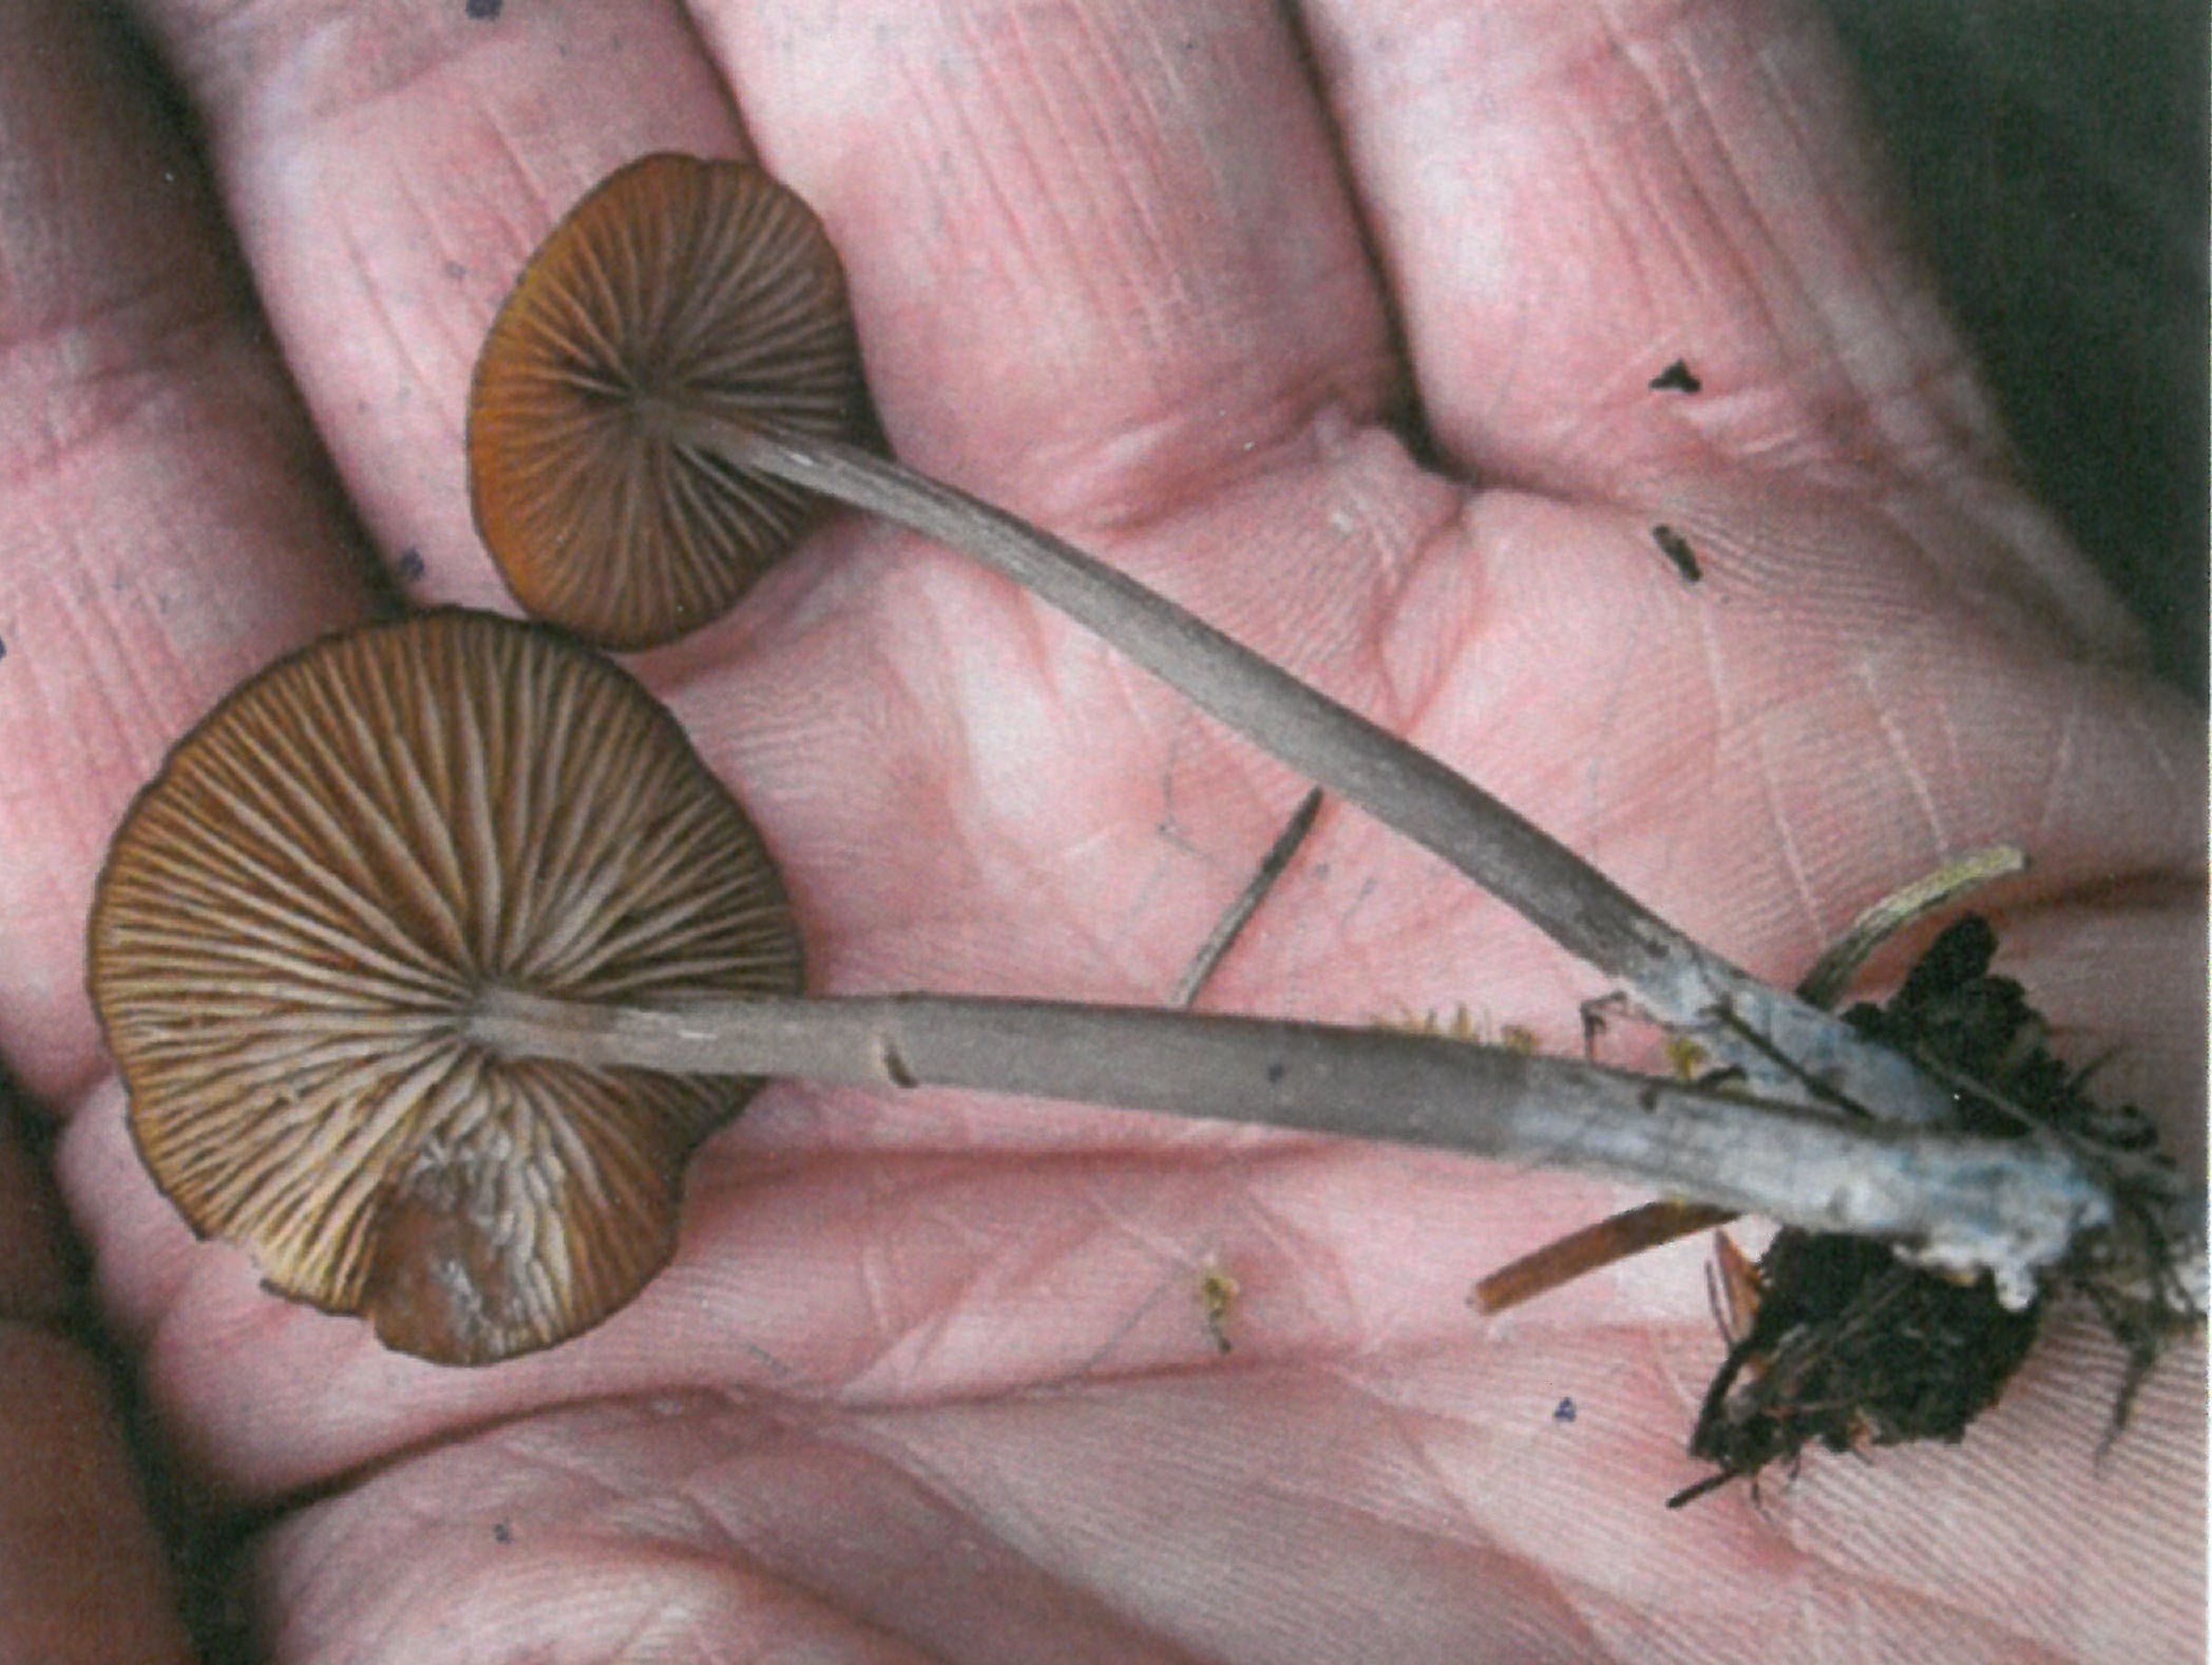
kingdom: Fungi
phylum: Basidiomycota
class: Agaricomycetes
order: Agaricales
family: Entolomataceae
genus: Entoloma
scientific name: Entoloma montanum
